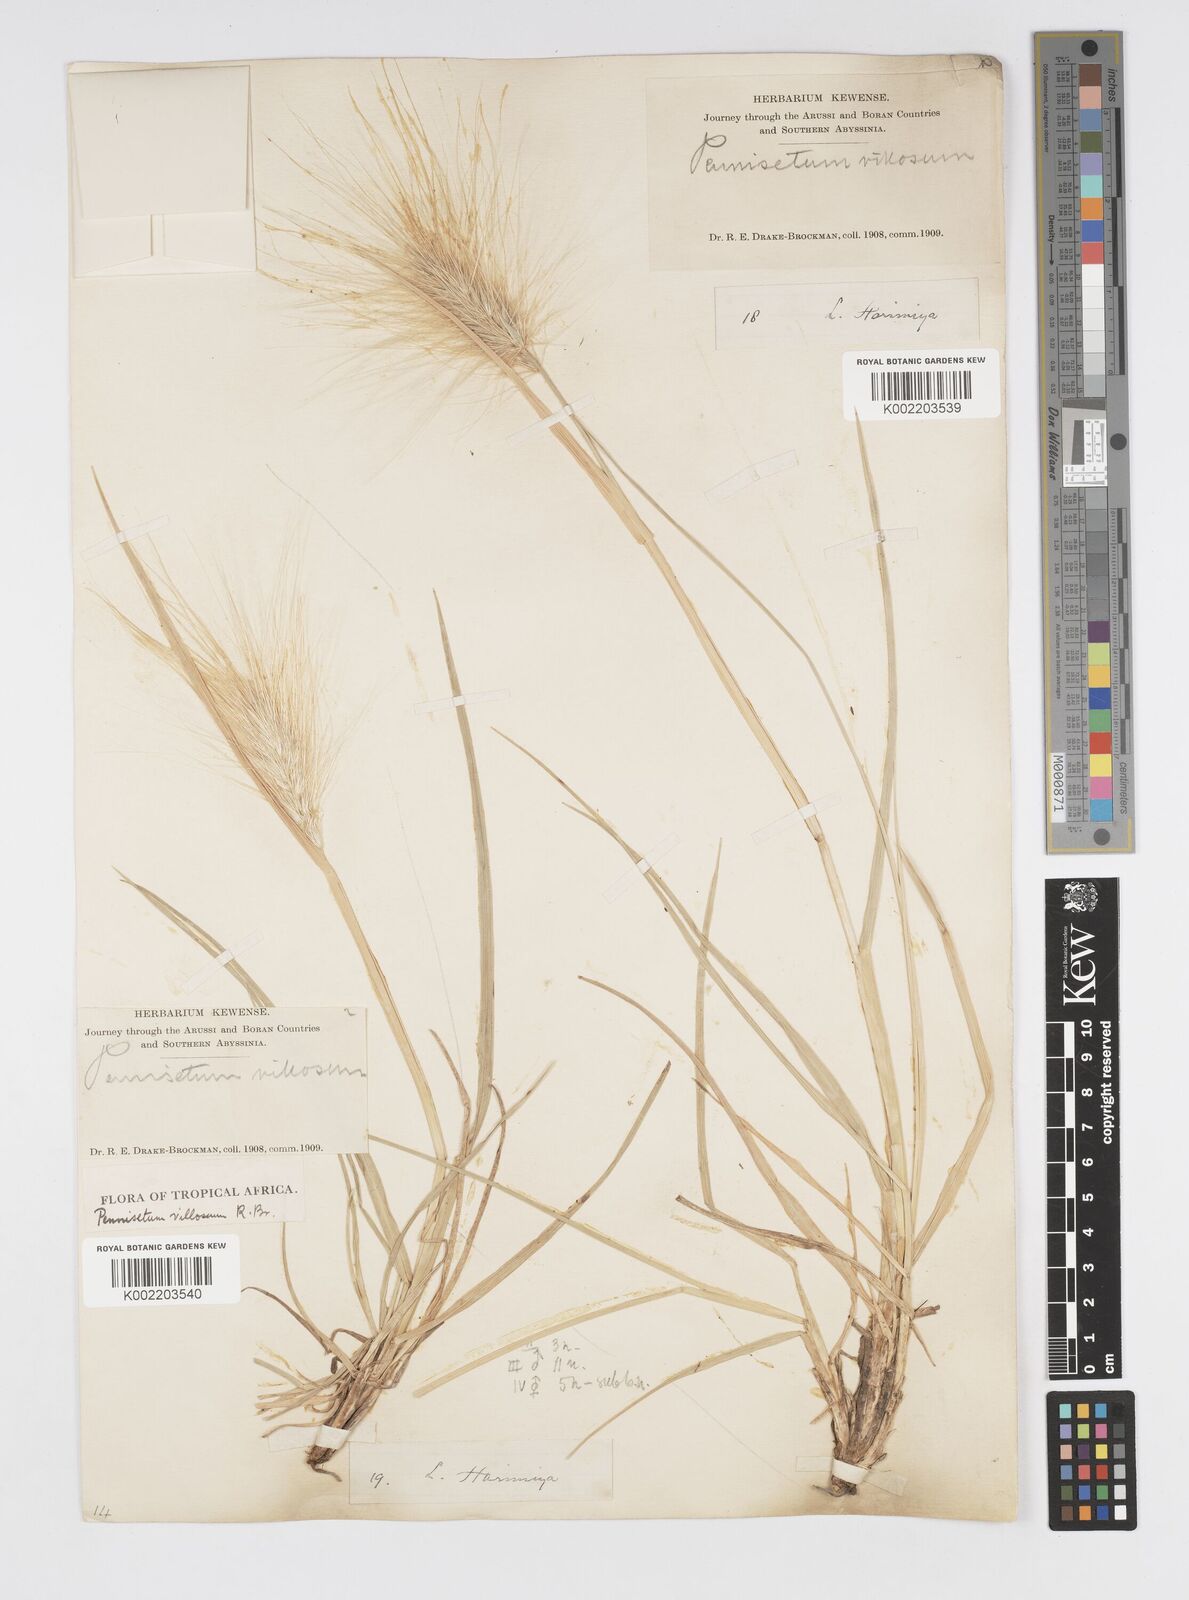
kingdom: Plantae
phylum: Tracheophyta
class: Liliopsida
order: Poales
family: Poaceae
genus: Cenchrus
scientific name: Cenchrus longisetus
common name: Feathertop
